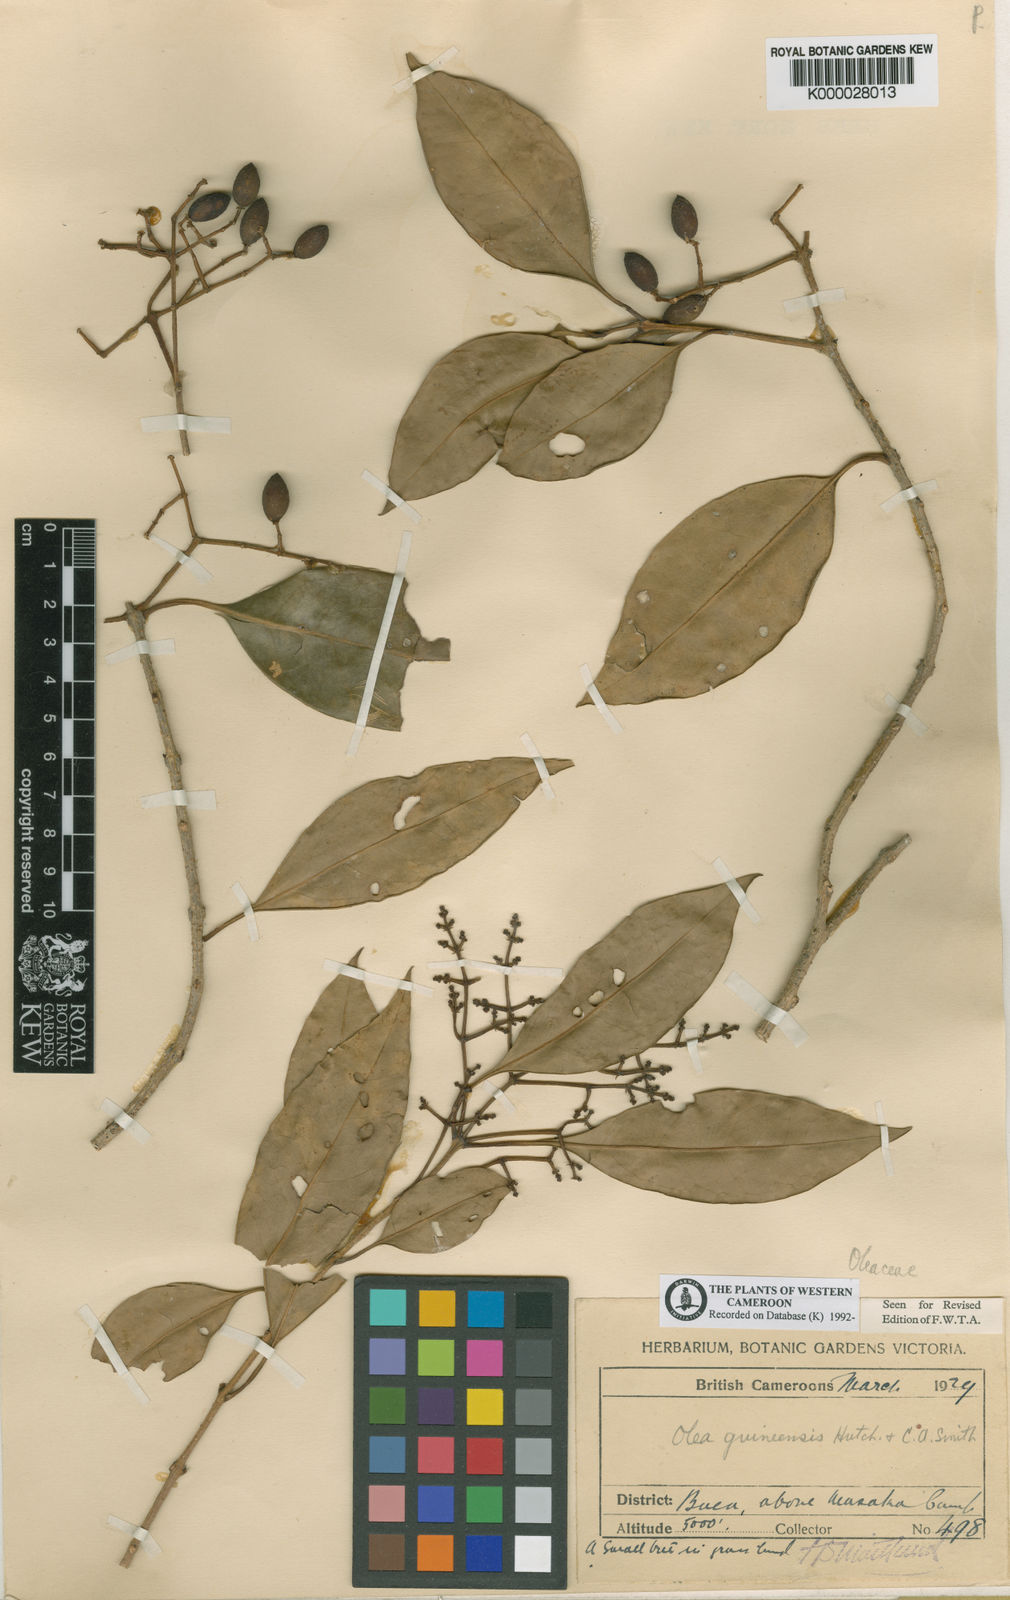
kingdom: Plantae
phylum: Tracheophyta
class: Magnoliopsida
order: Lamiales
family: Oleaceae
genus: Olea
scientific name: Olea capensis
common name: Black ironwood
